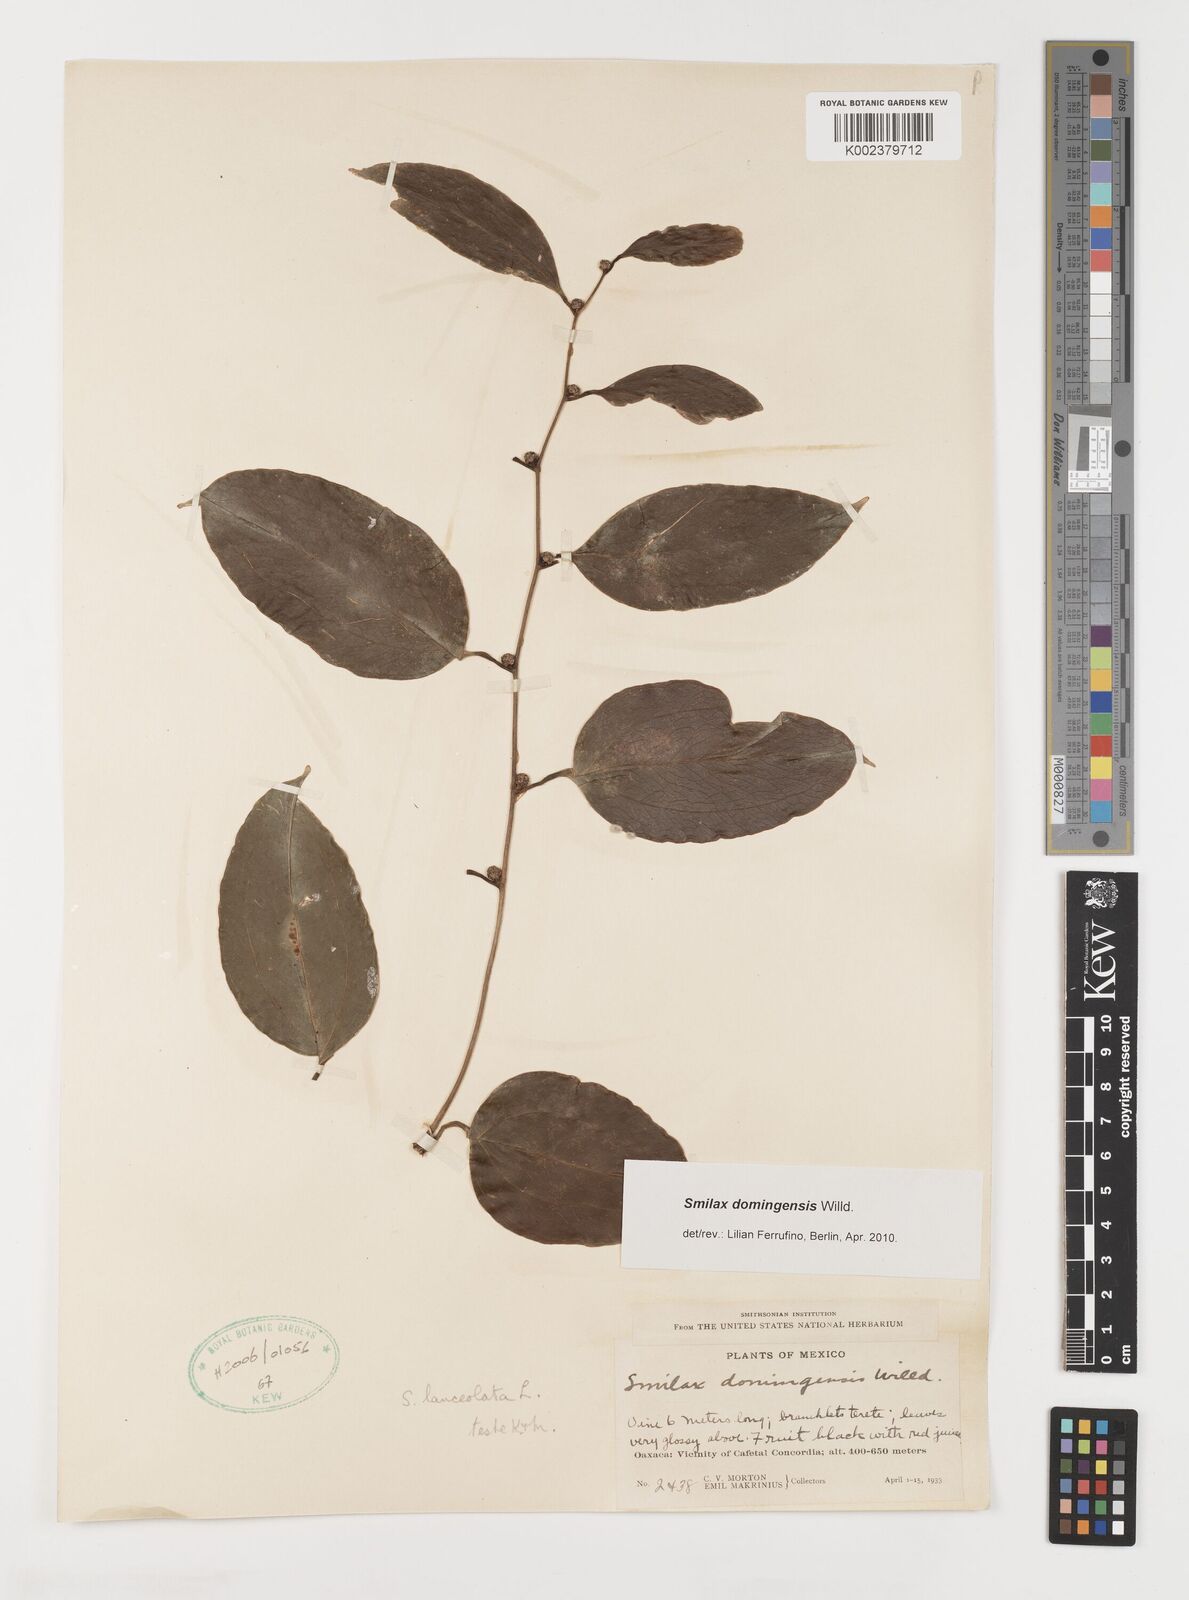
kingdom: Plantae
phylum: Tracheophyta
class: Liliopsida
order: Liliales
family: Smilacaceae
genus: Smilax
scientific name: Smilax domingensis
